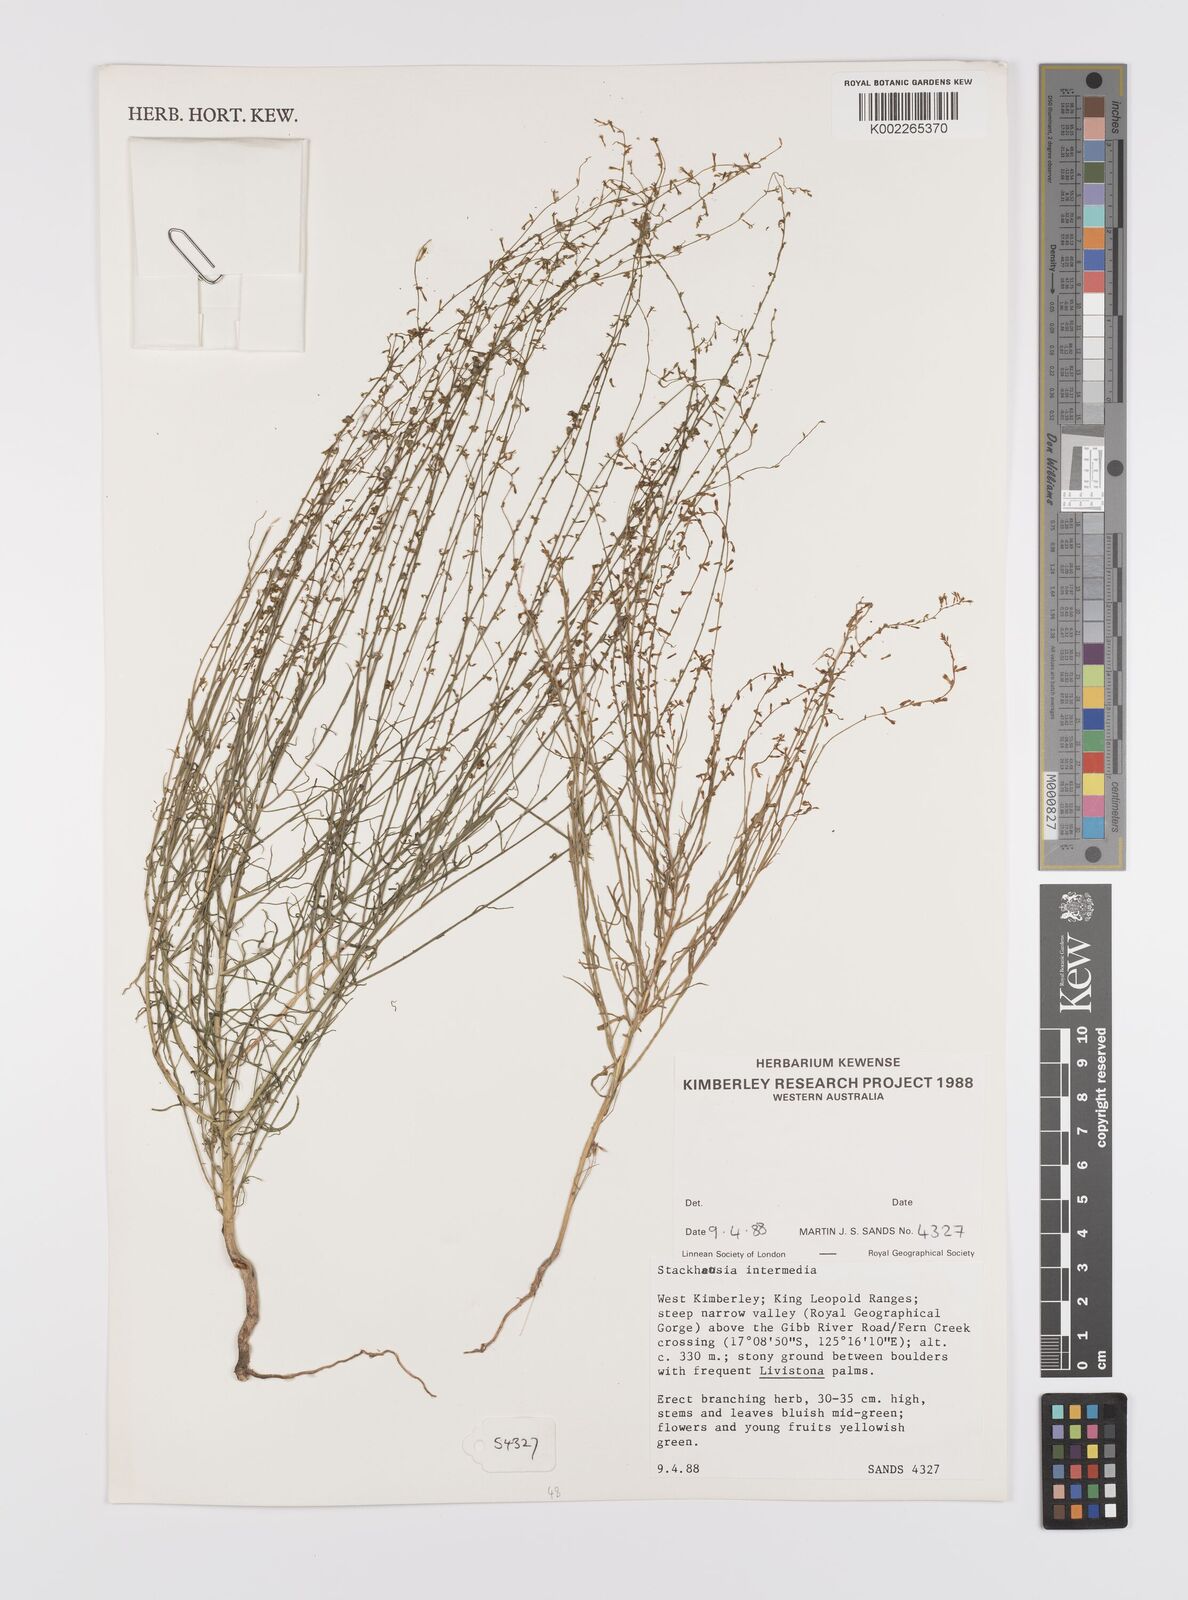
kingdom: Plantae
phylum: Tracheophyta
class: Magnoliopsida
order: Celastrales
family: Celastraceae
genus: Stackhousia
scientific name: Stackhousia intermedia
